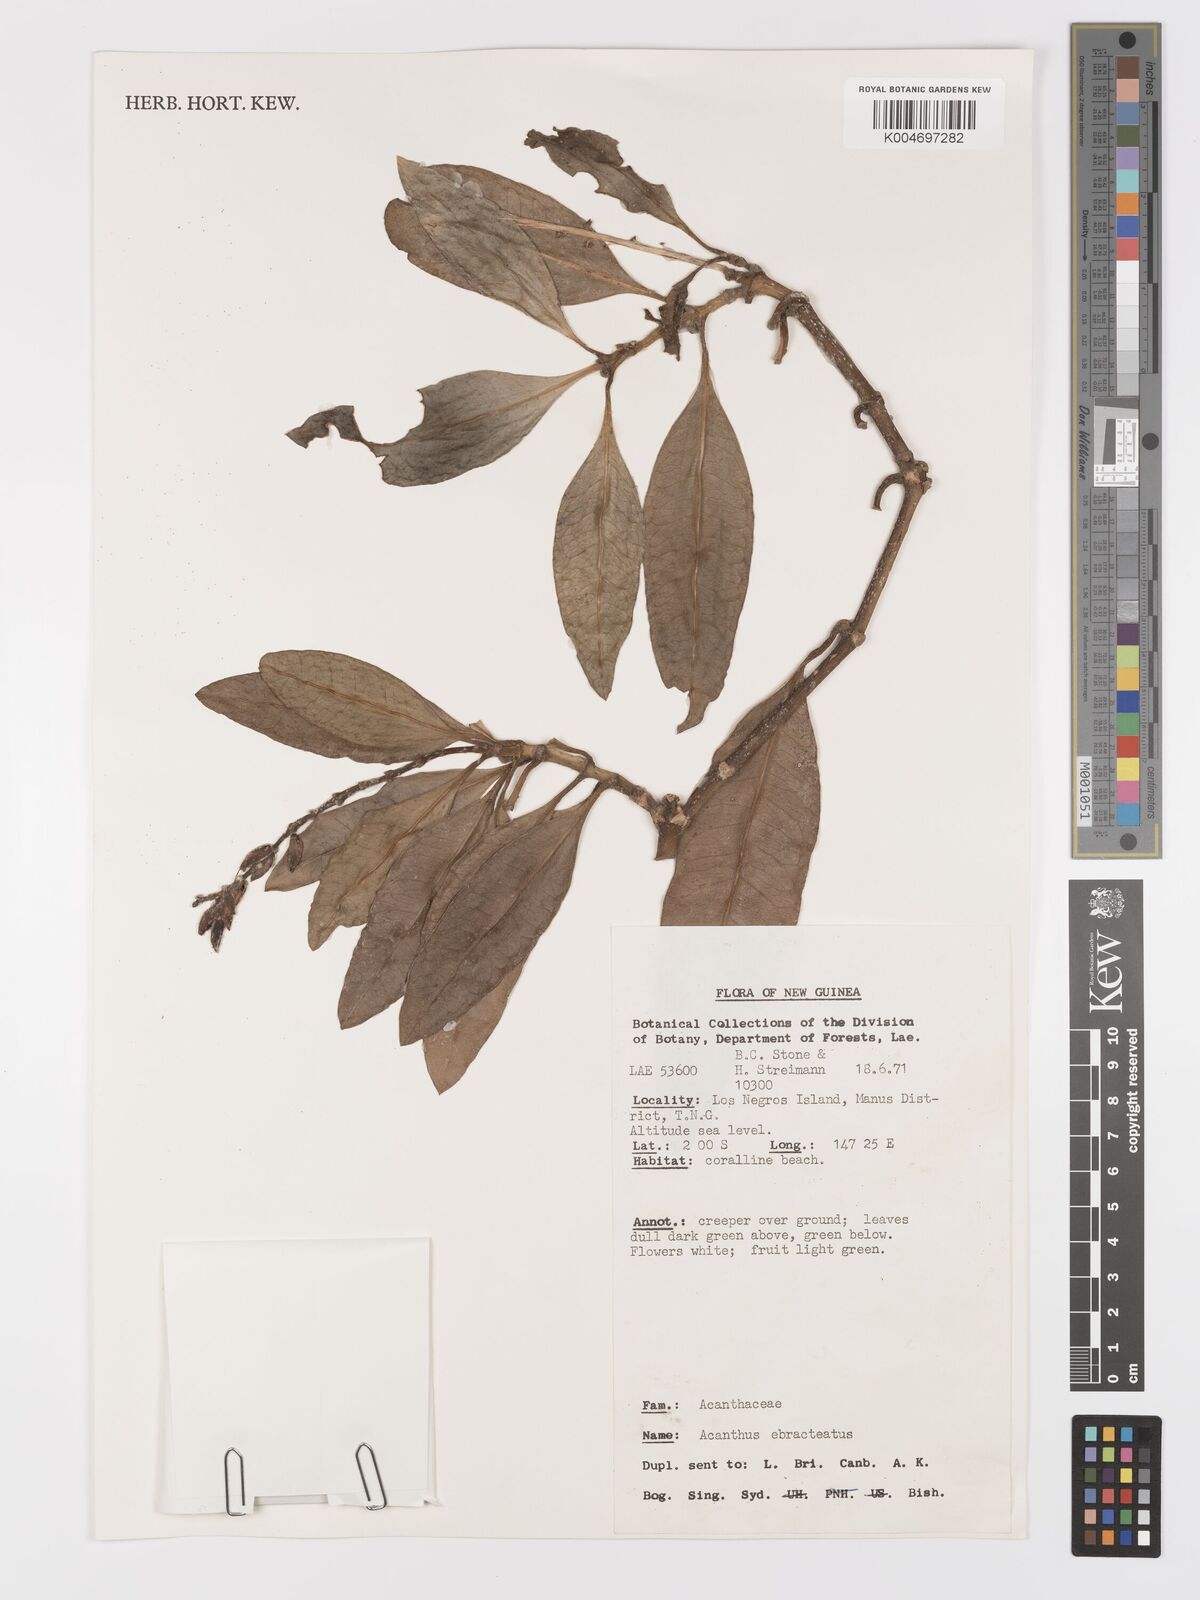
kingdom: Plantae
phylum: Tracheophyta
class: Magnoliopsida
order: Lamiales
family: Acanthaceae
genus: Acanthus
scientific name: Acanthus ebracteatus
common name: Acanthus
